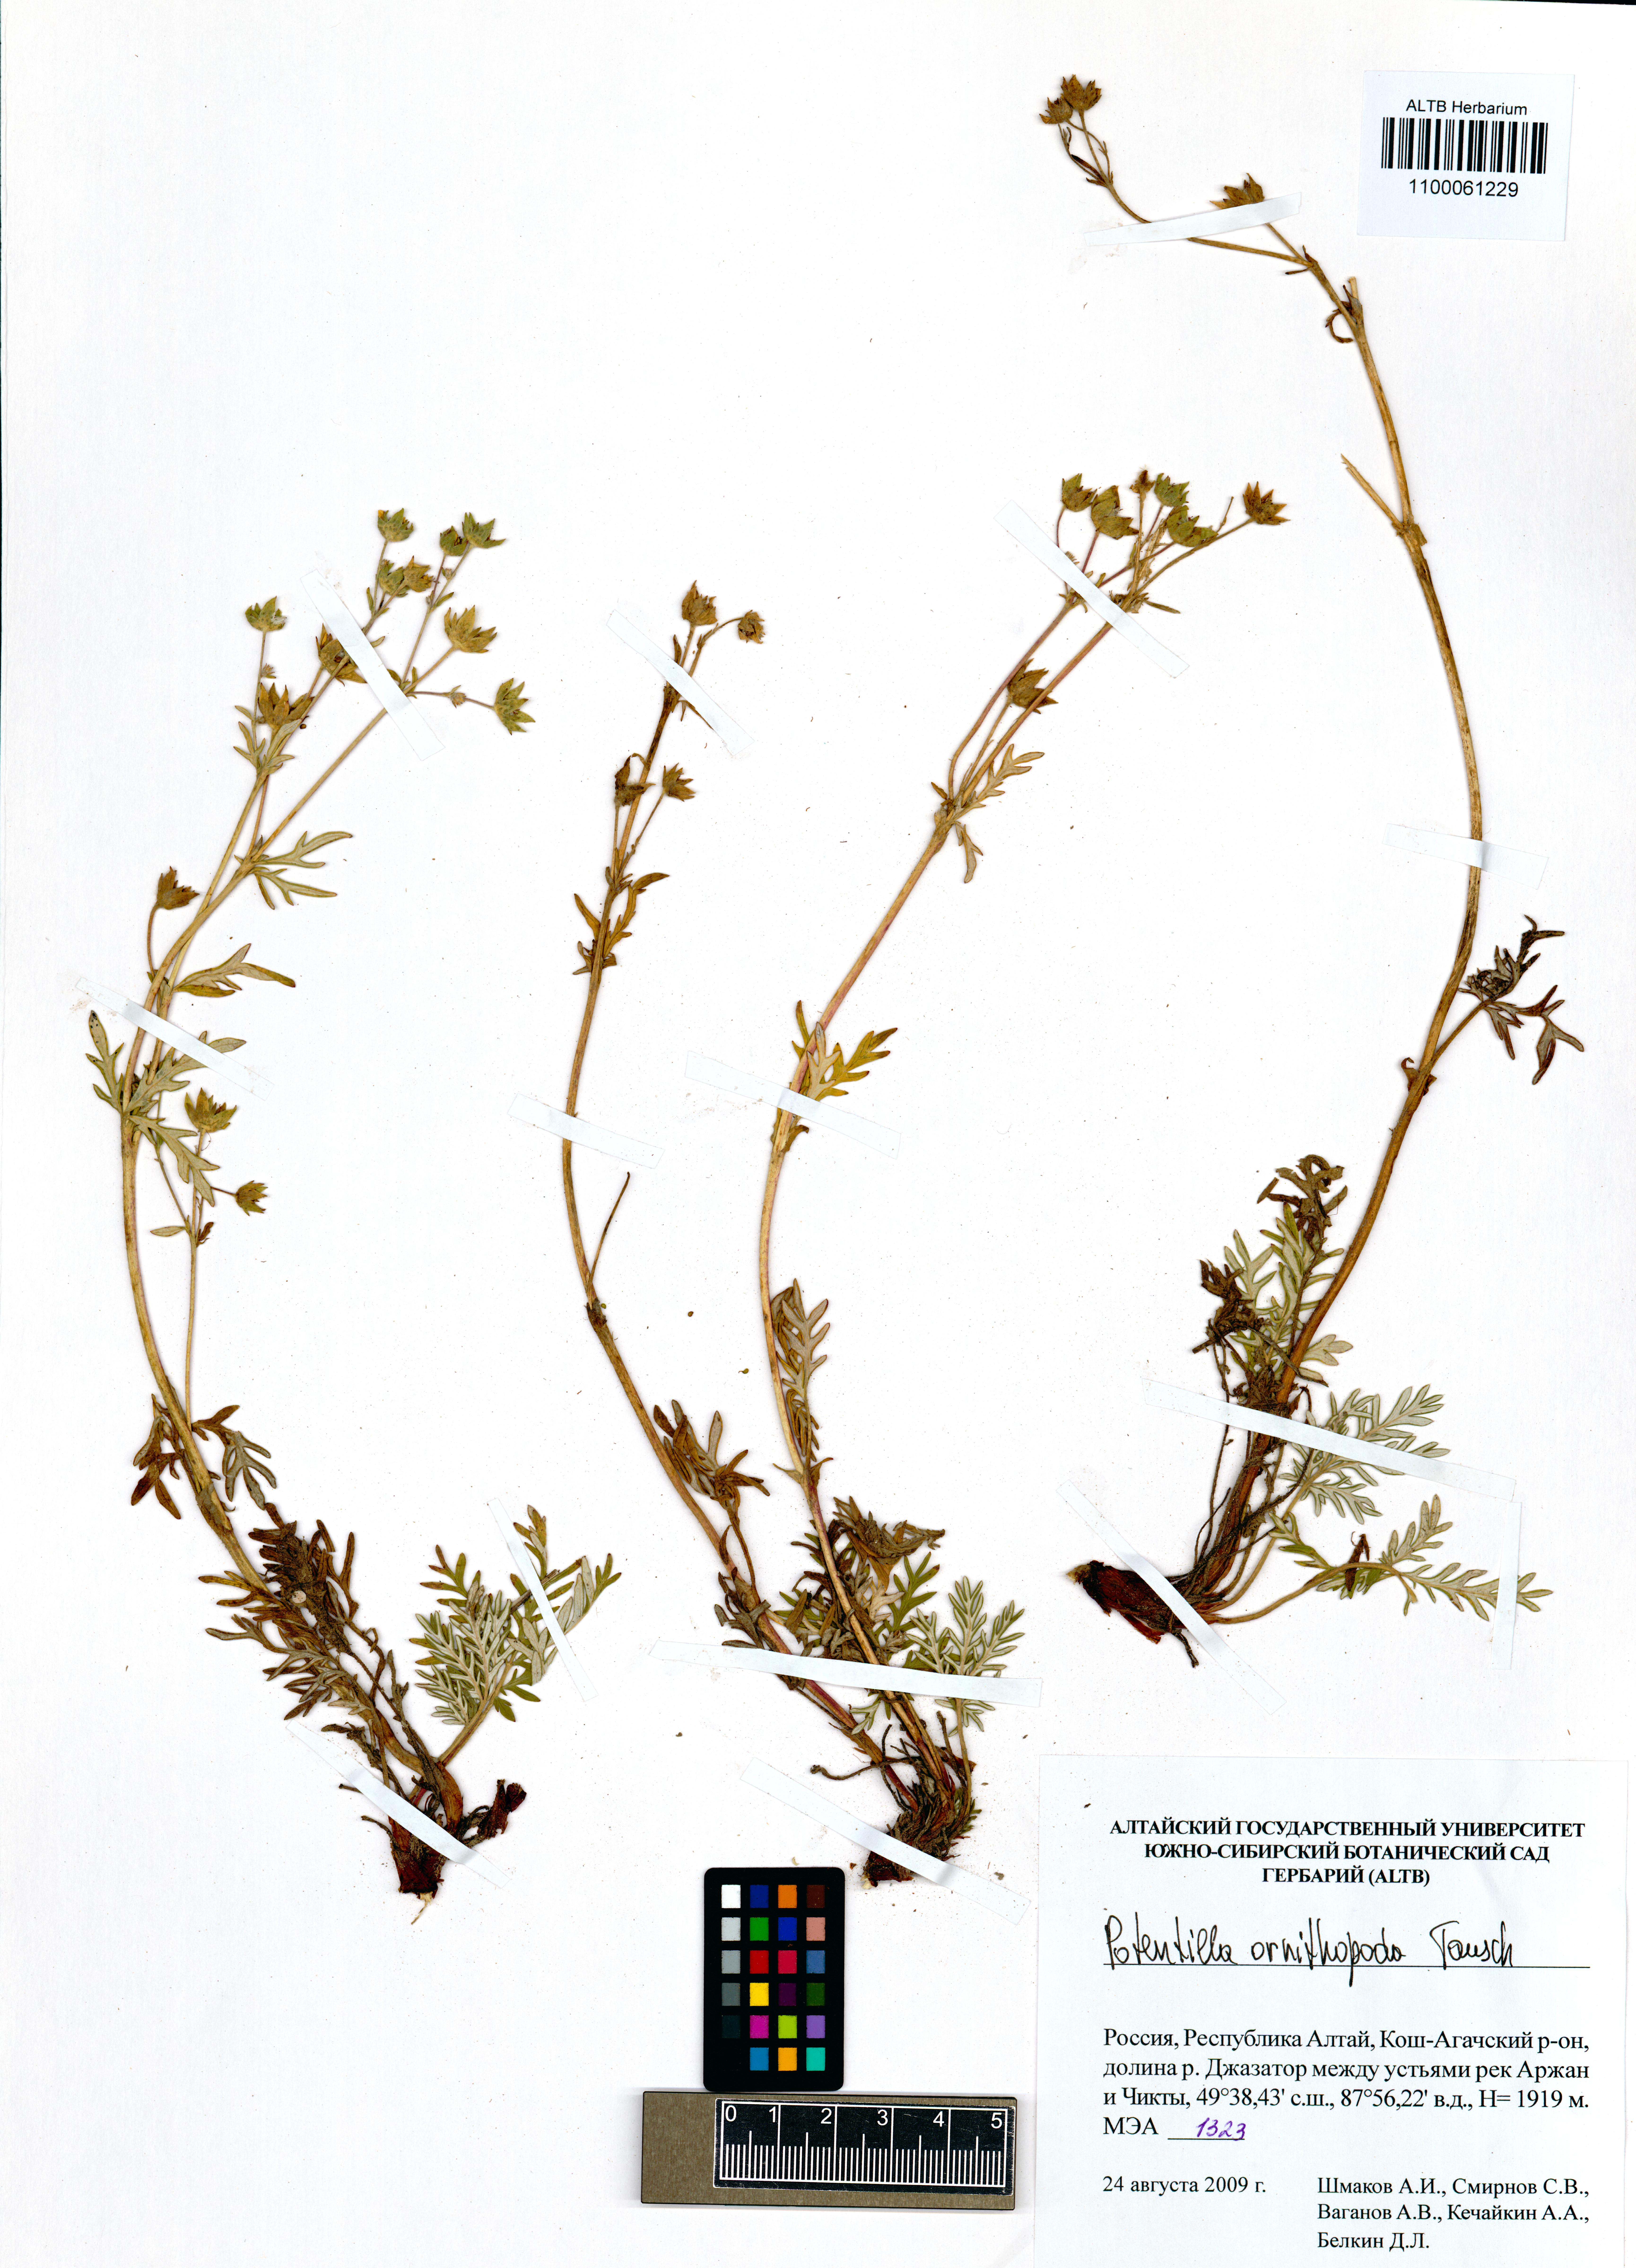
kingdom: Plantae
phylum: Tracheophyta
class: Magnoliopsida
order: Rosales
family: Rosaceae
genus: Potentilla
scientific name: Potentilla ornithopoda
